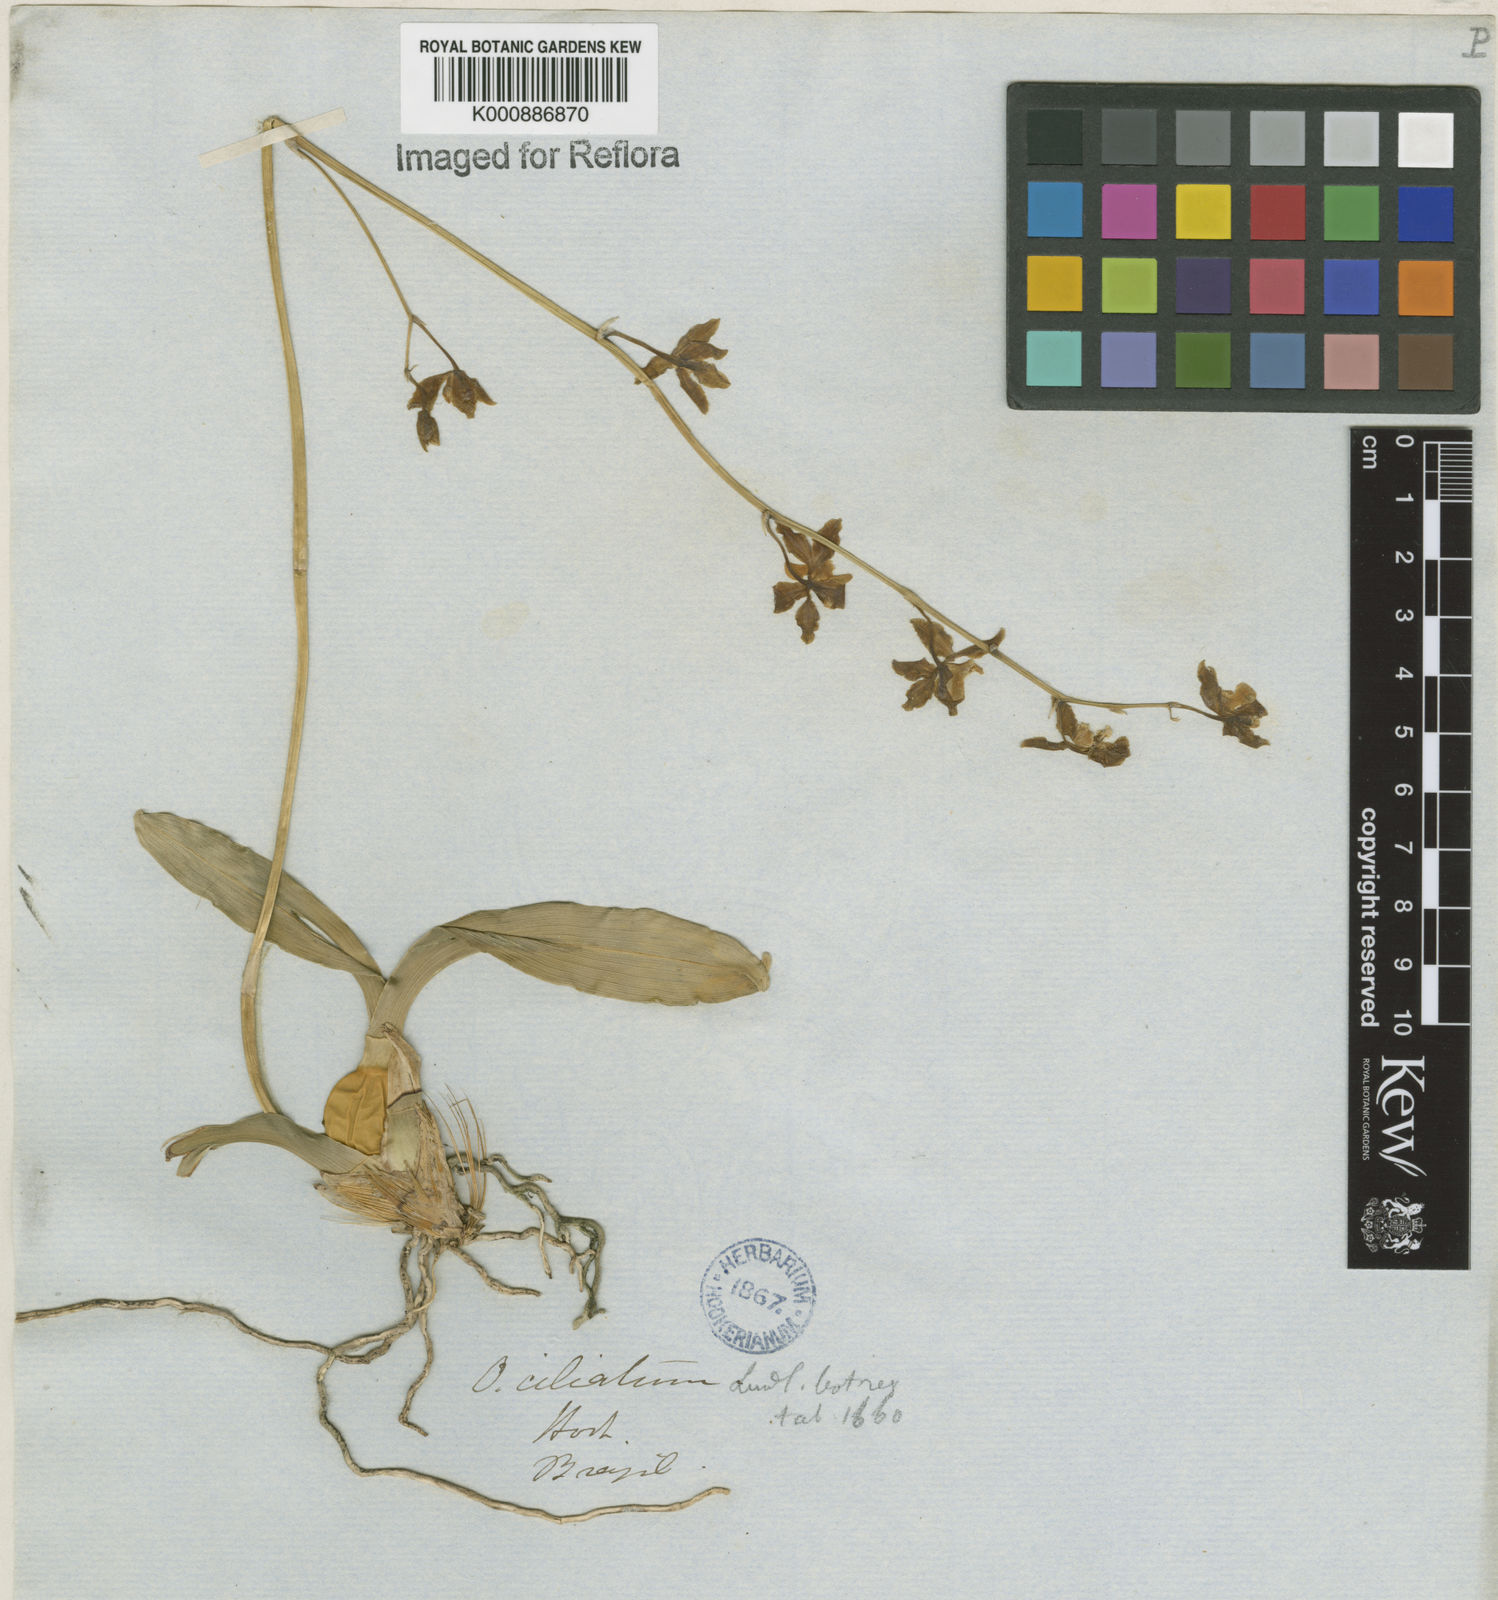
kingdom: Plantae
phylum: Tracheophyta
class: Liliopsida
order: Asparagales
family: Orchidaceae
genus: Gomesa
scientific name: Gomesa ciliata
